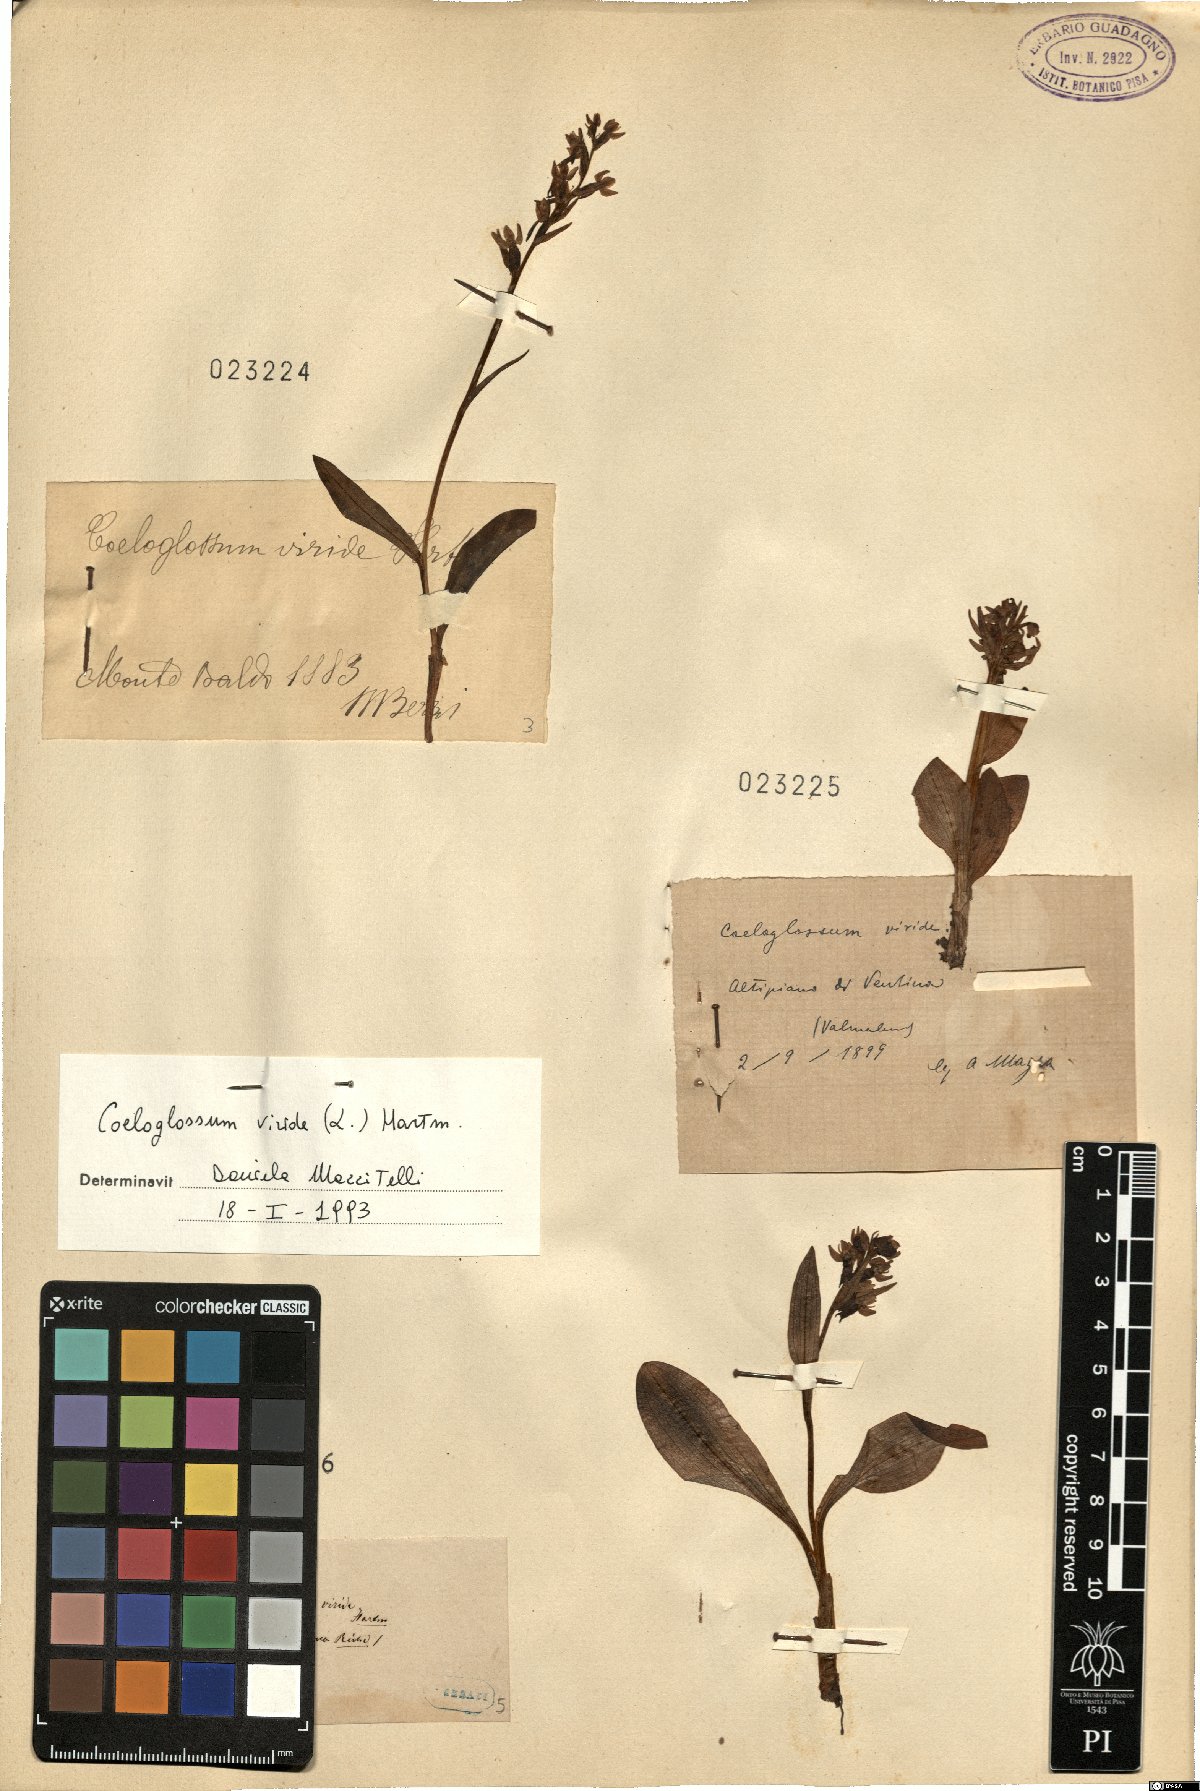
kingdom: Plantae
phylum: Tracheophyta
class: Liliopsida
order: Asparagales
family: Orchidaceae
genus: Dactylorhiza
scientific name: Dactylorhiza viridis
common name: Longbract frog orchid
